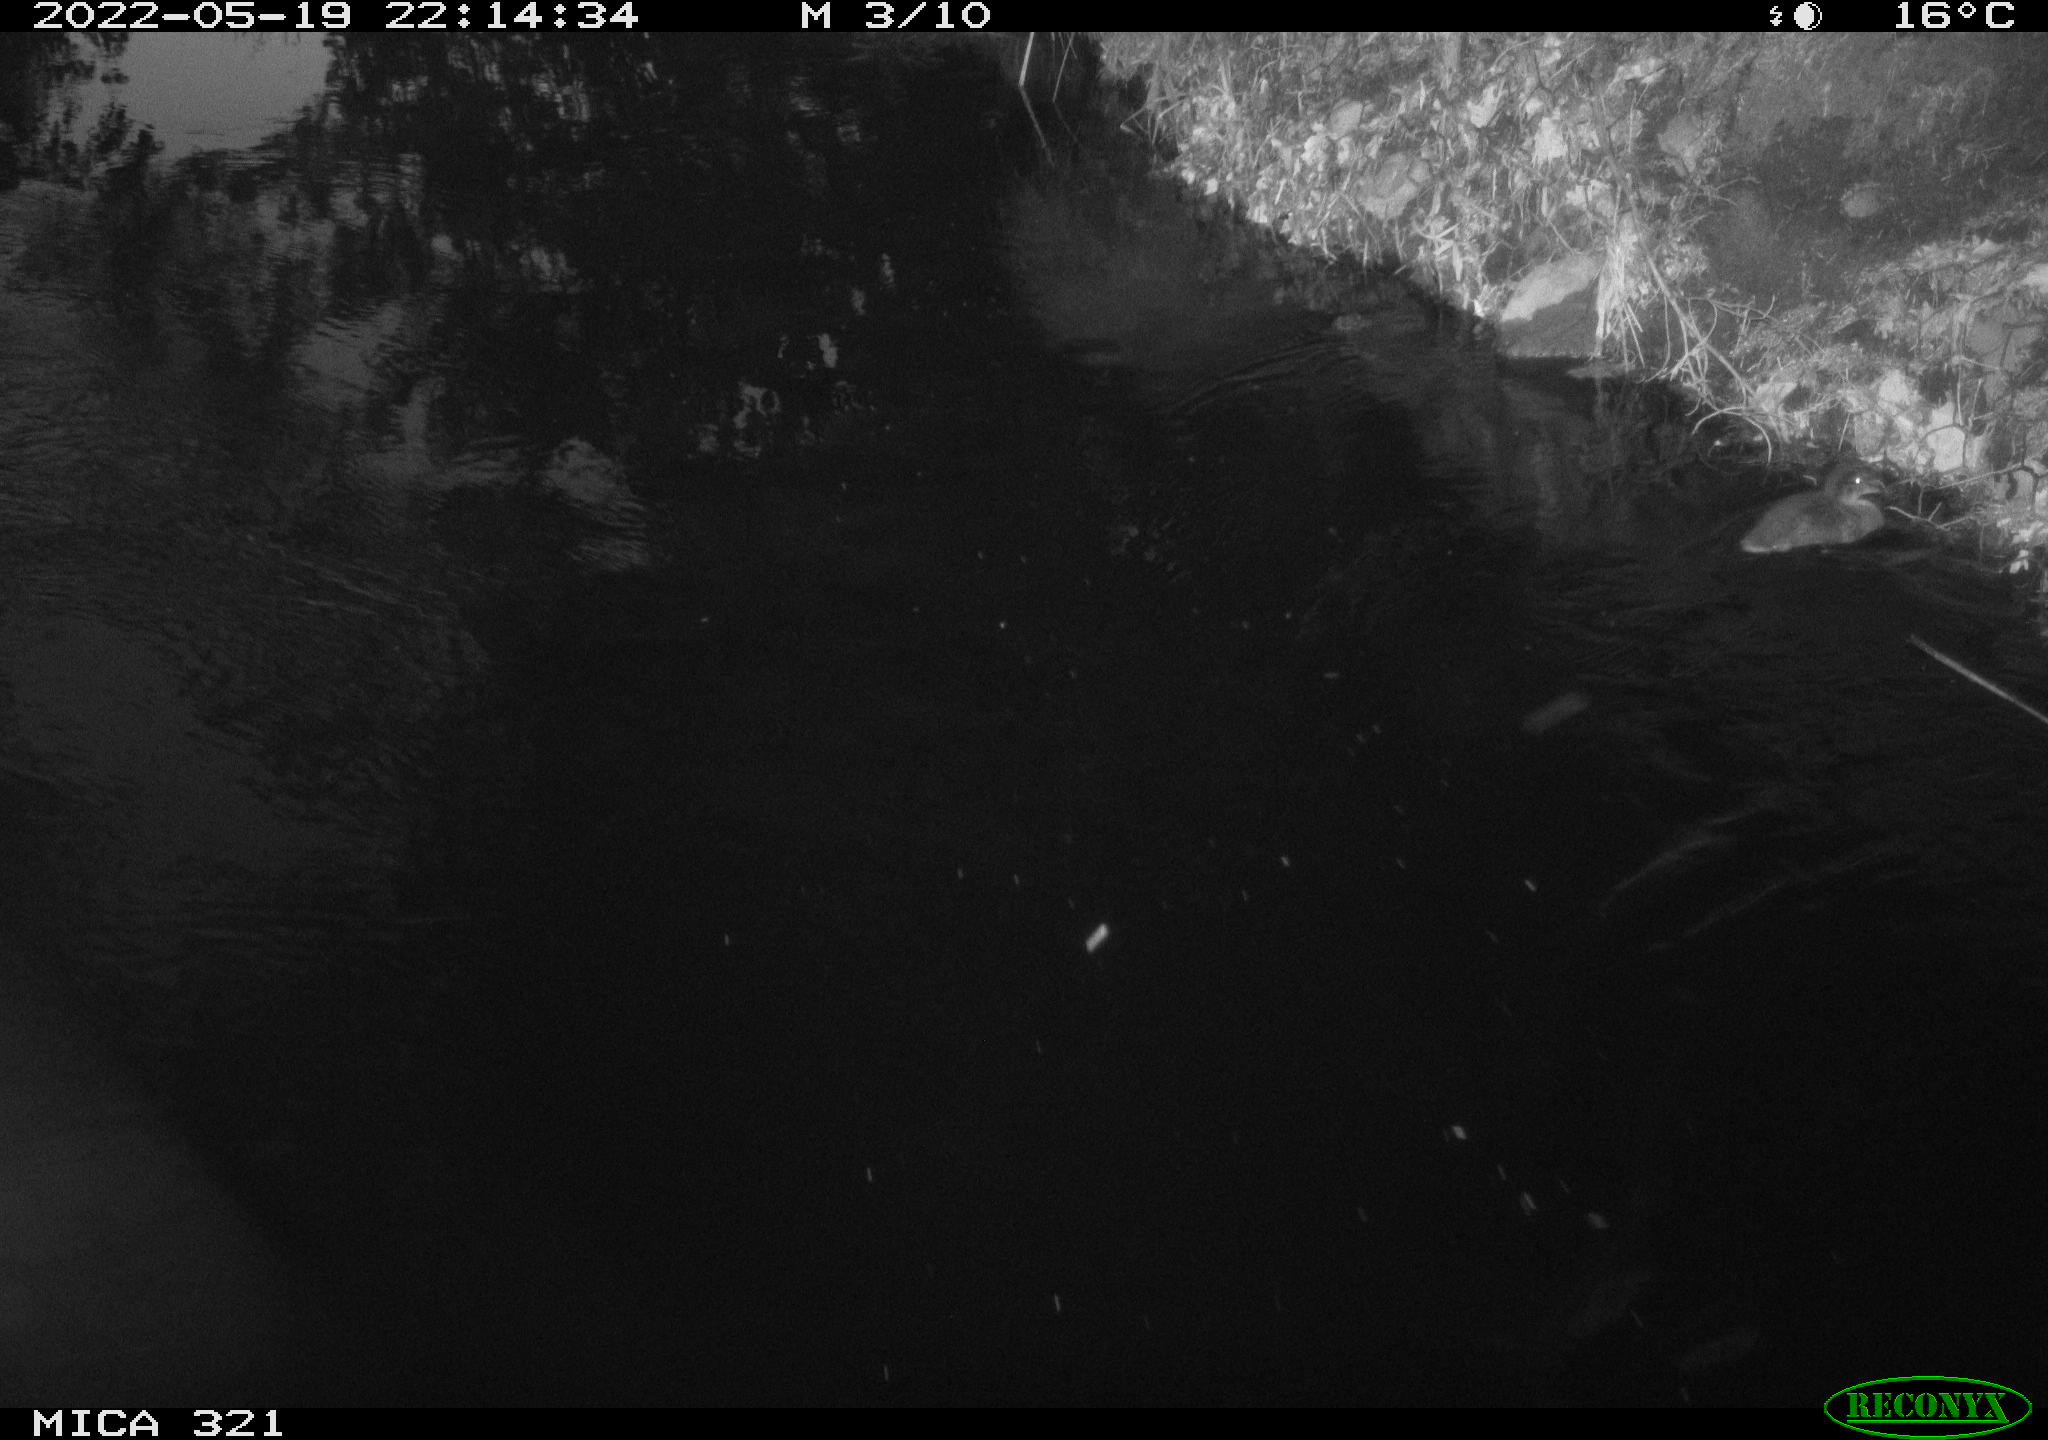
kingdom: Animalia
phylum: Chordata
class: Aves
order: Anseriformes
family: Anatidae
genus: Anas
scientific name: Anas platyrhynchos
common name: Mallard
